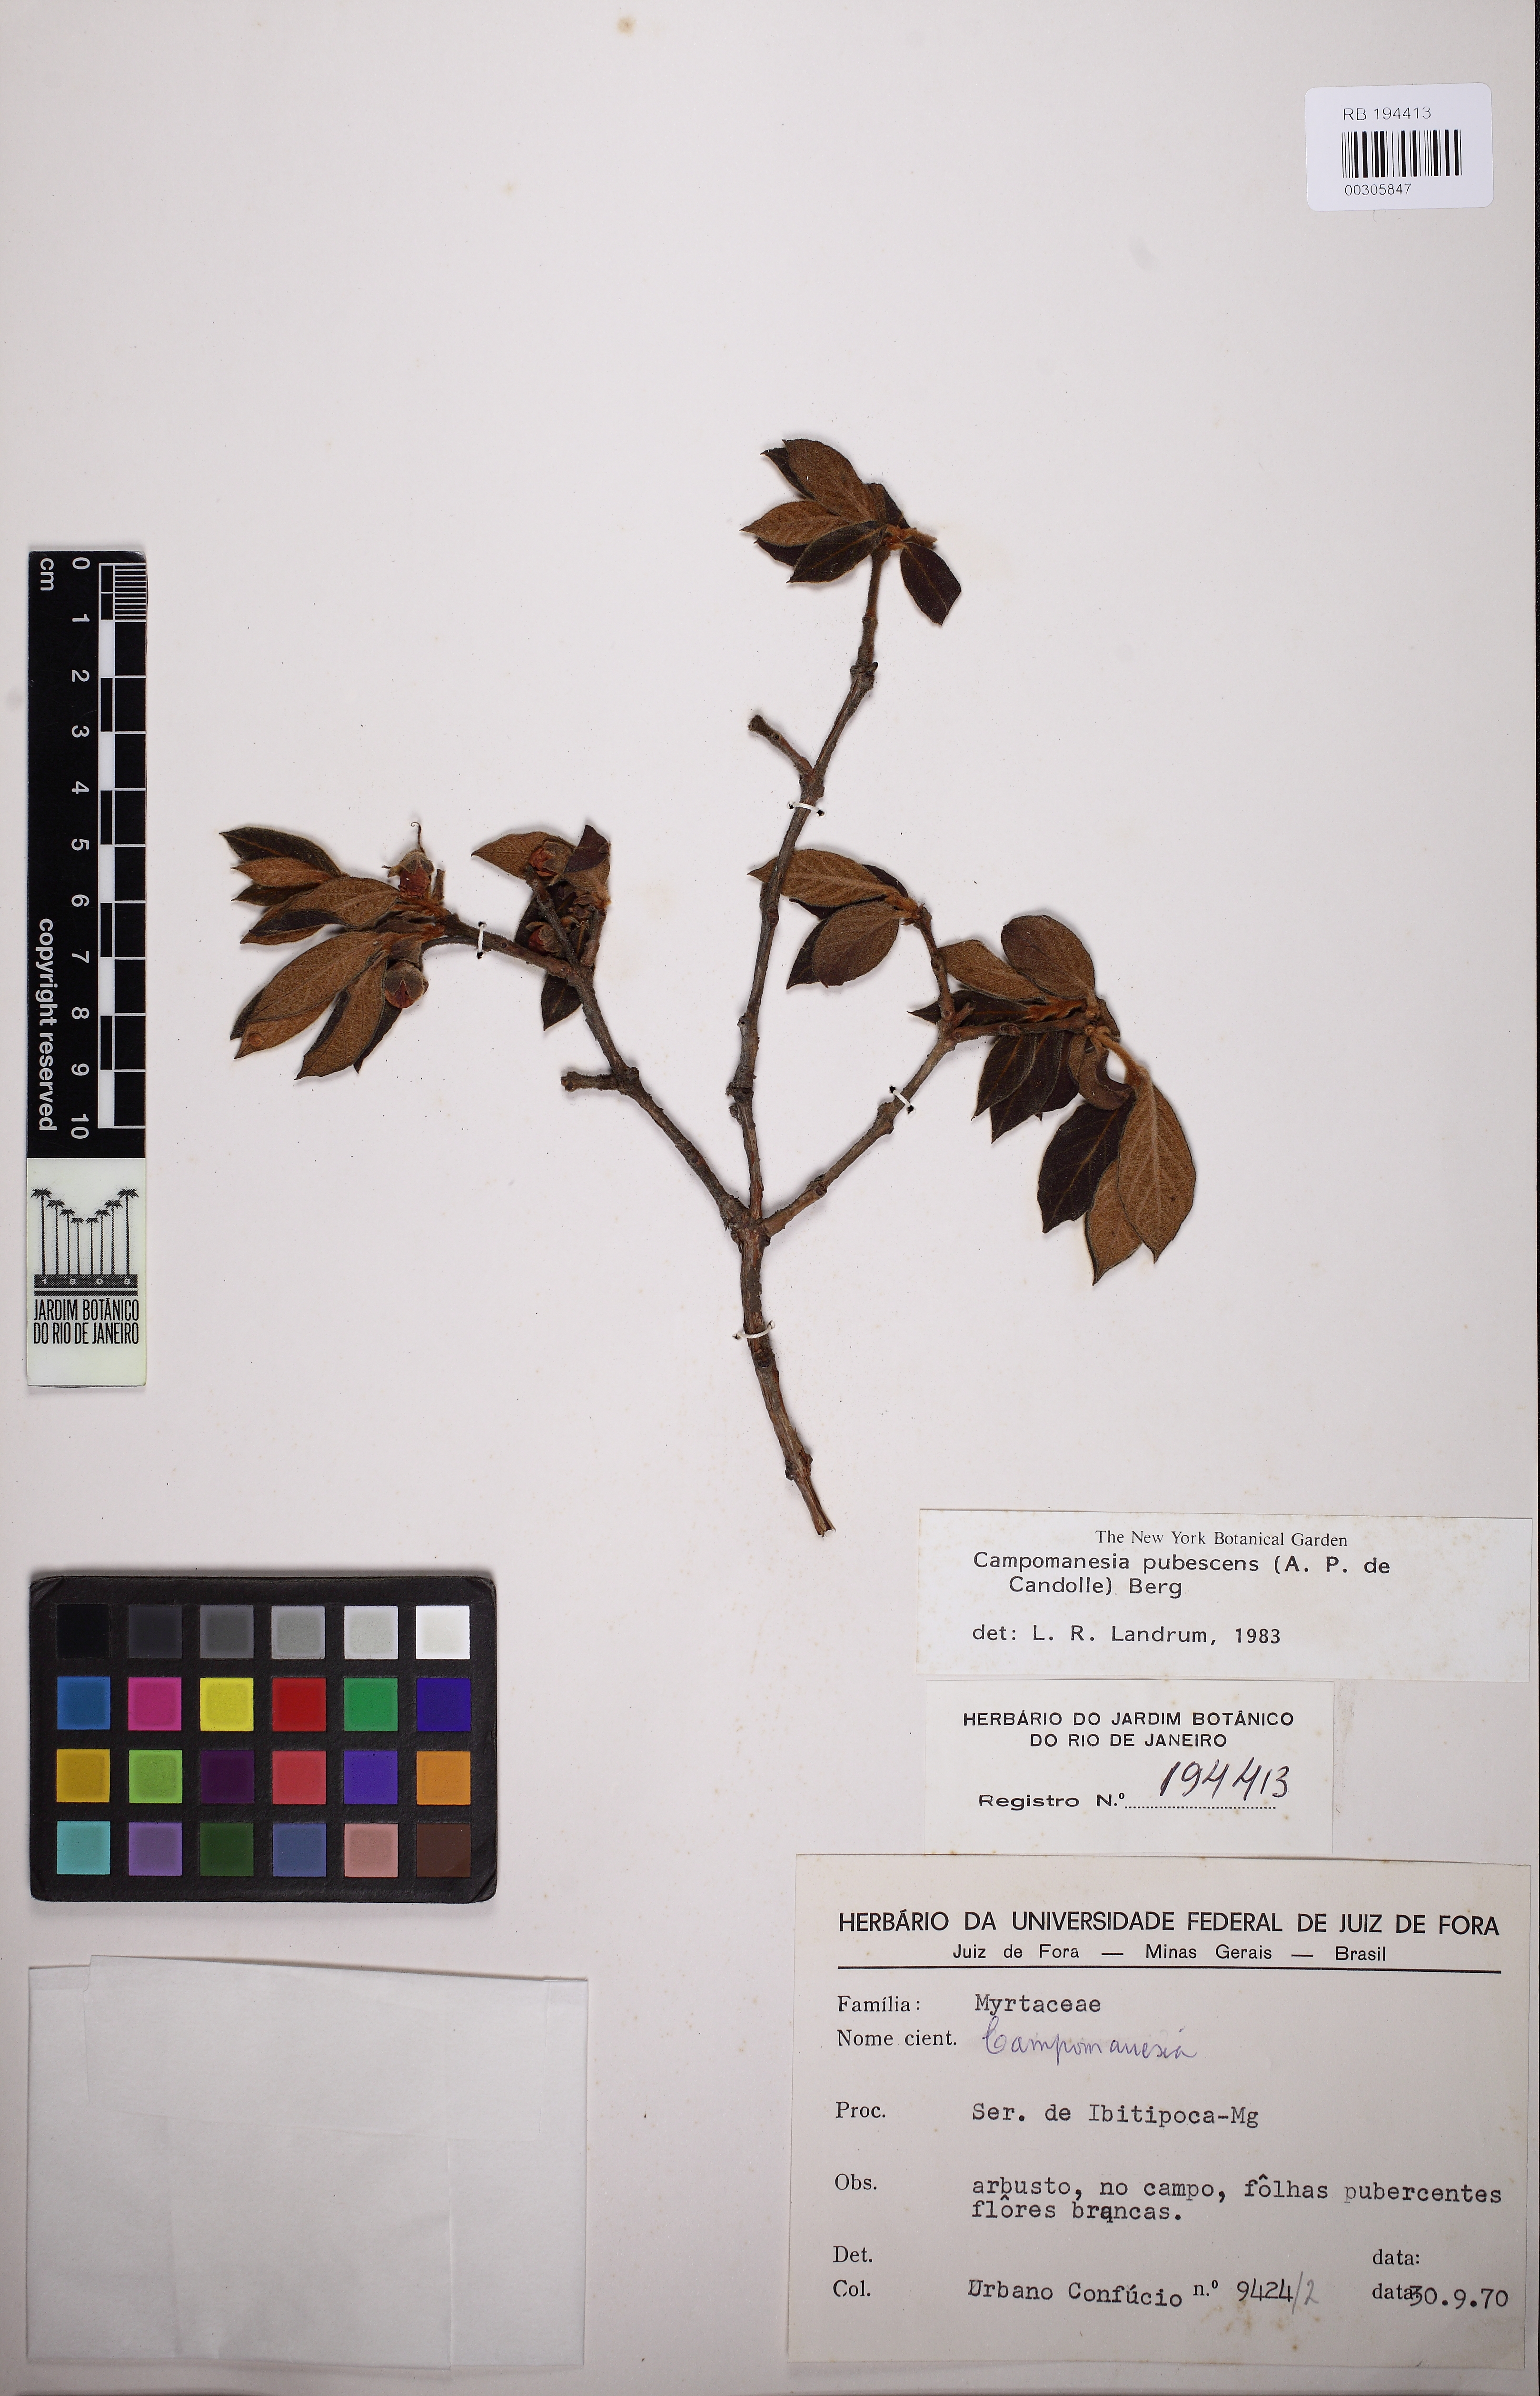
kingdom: Plantae
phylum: Tracheophyta
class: Magnoliopsida
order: Myrtales
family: Myrtaceae
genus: Campomanesia
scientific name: Campomanesia pubescens
